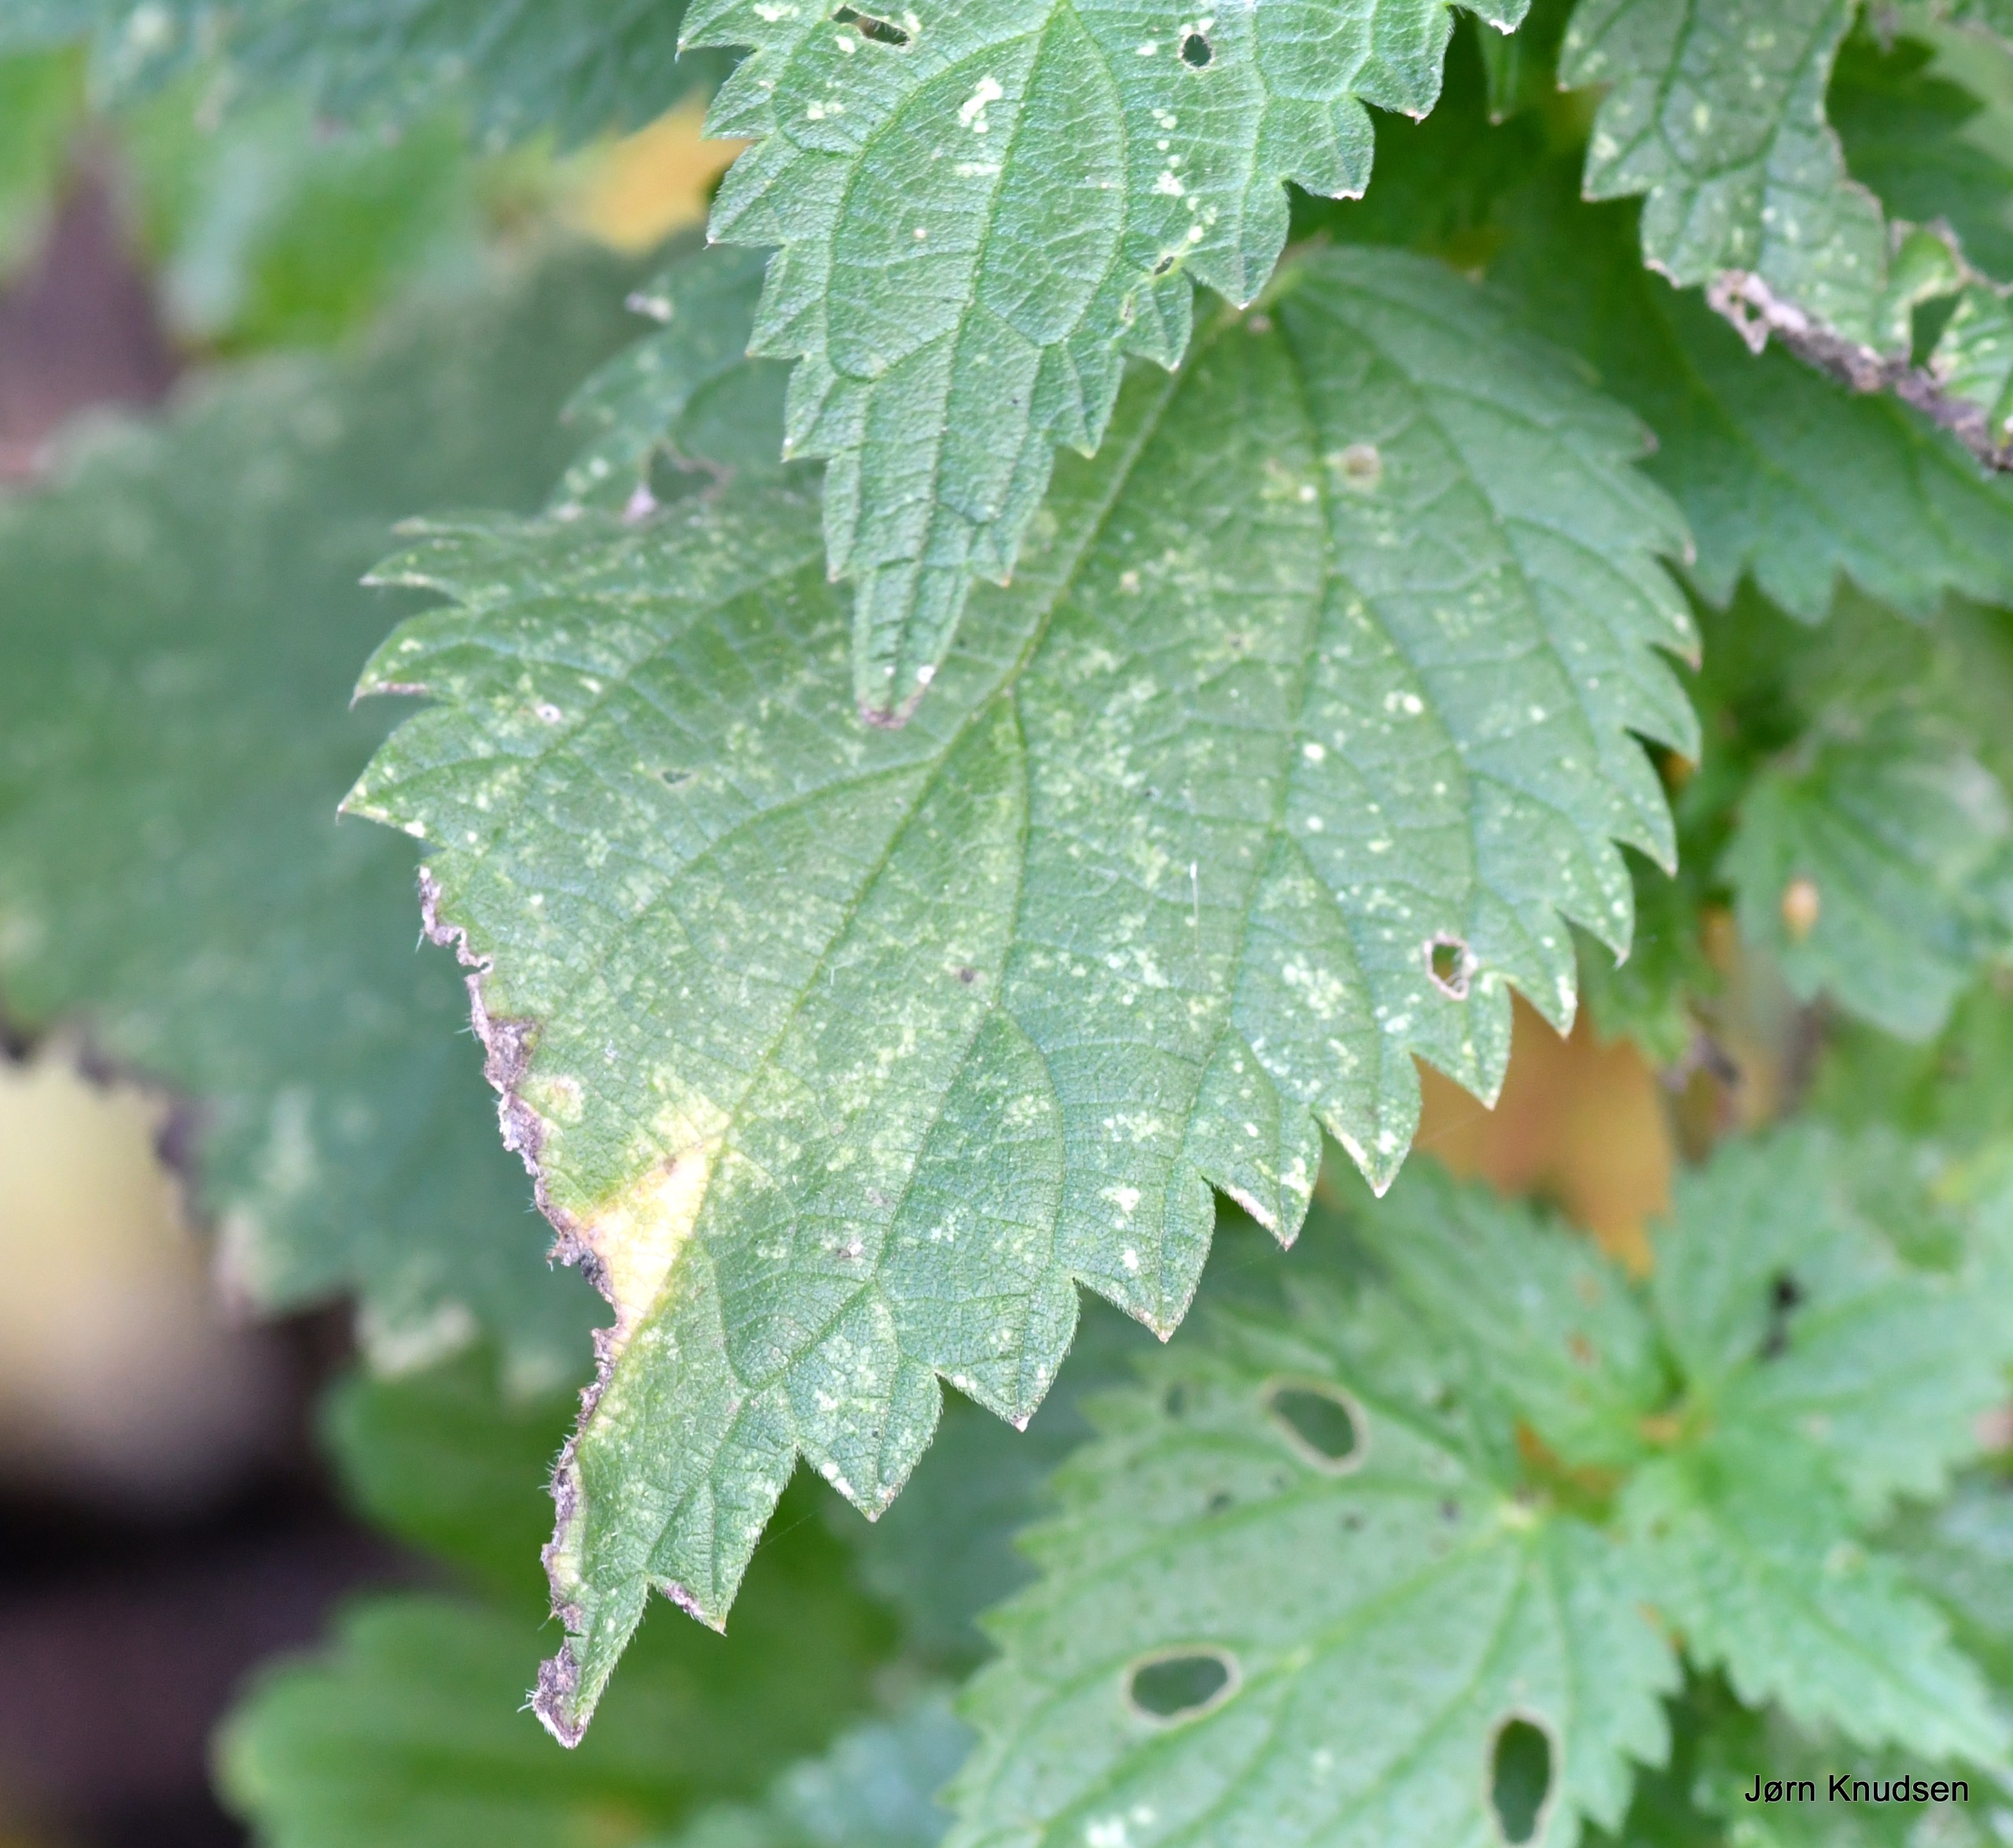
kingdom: Plantae
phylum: Tracheophyta
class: Magnoliopsida
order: Rosales
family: Urticaceae
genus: Urtica
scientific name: Urtica dioica
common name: Stor nælde
